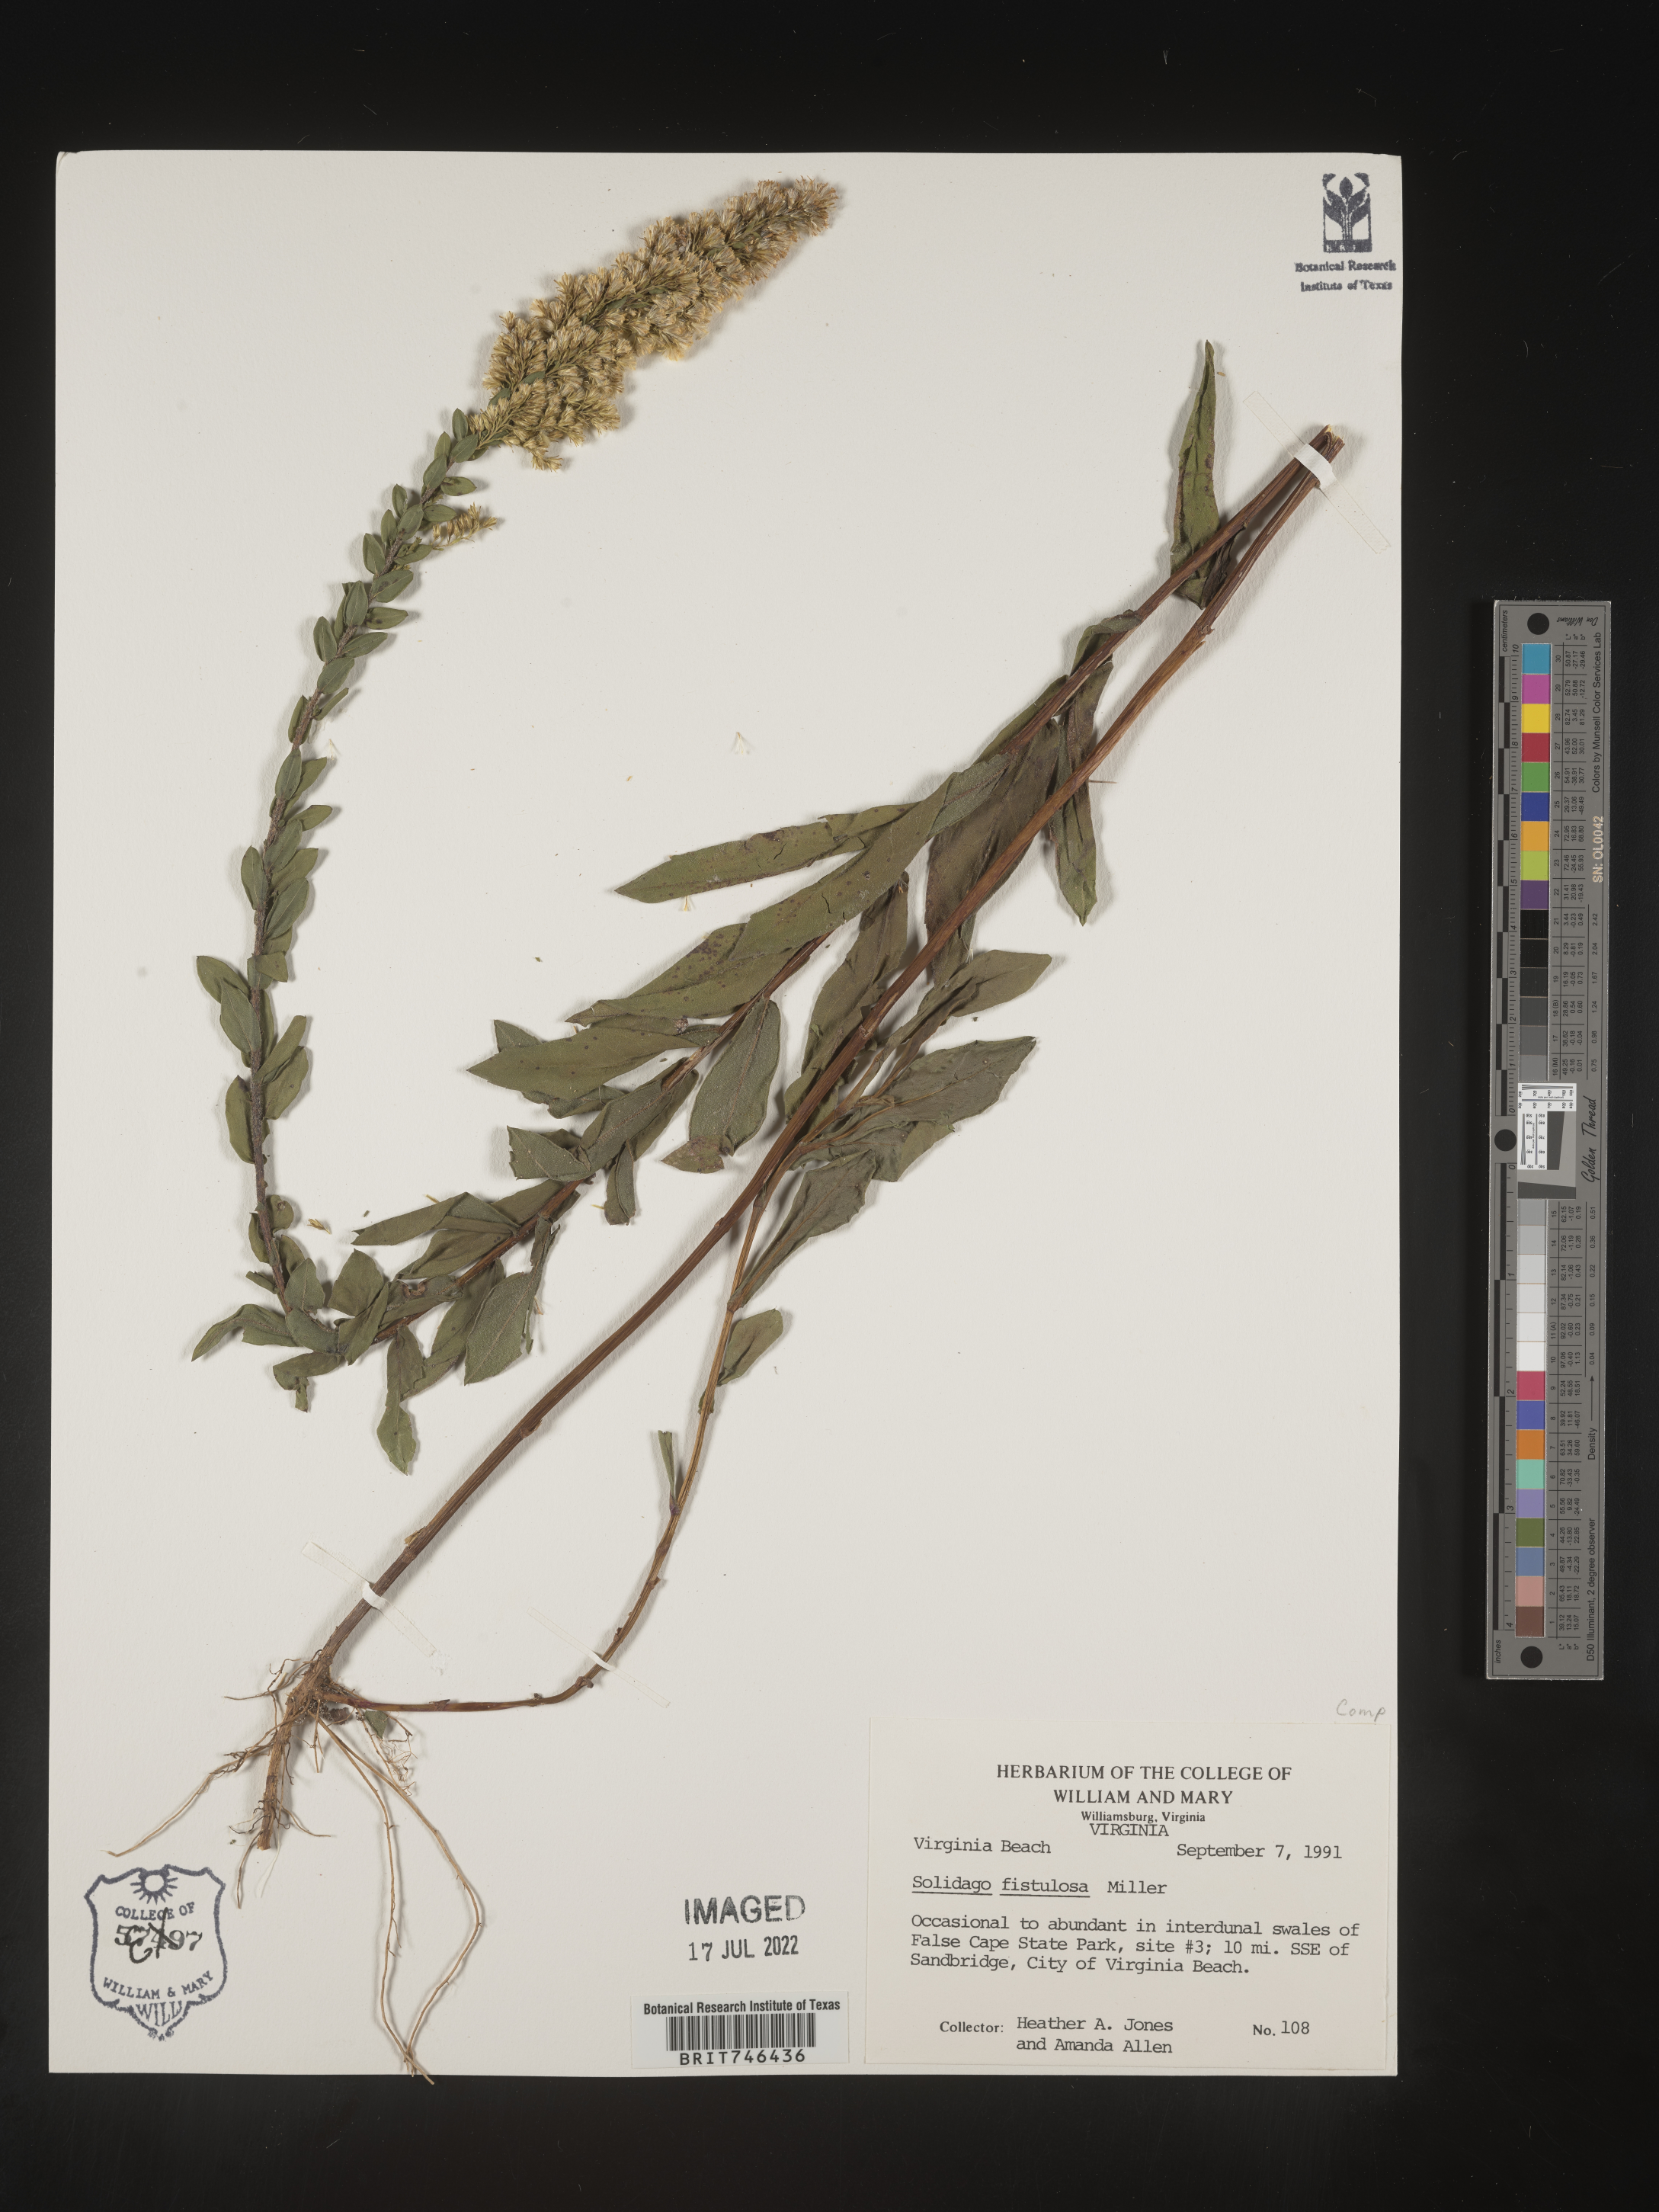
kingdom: Plantae
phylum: Tracheophyta
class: Magnoliopsida
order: Asterales
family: Asteraceae
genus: Solidago
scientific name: Solidago fistulosa
